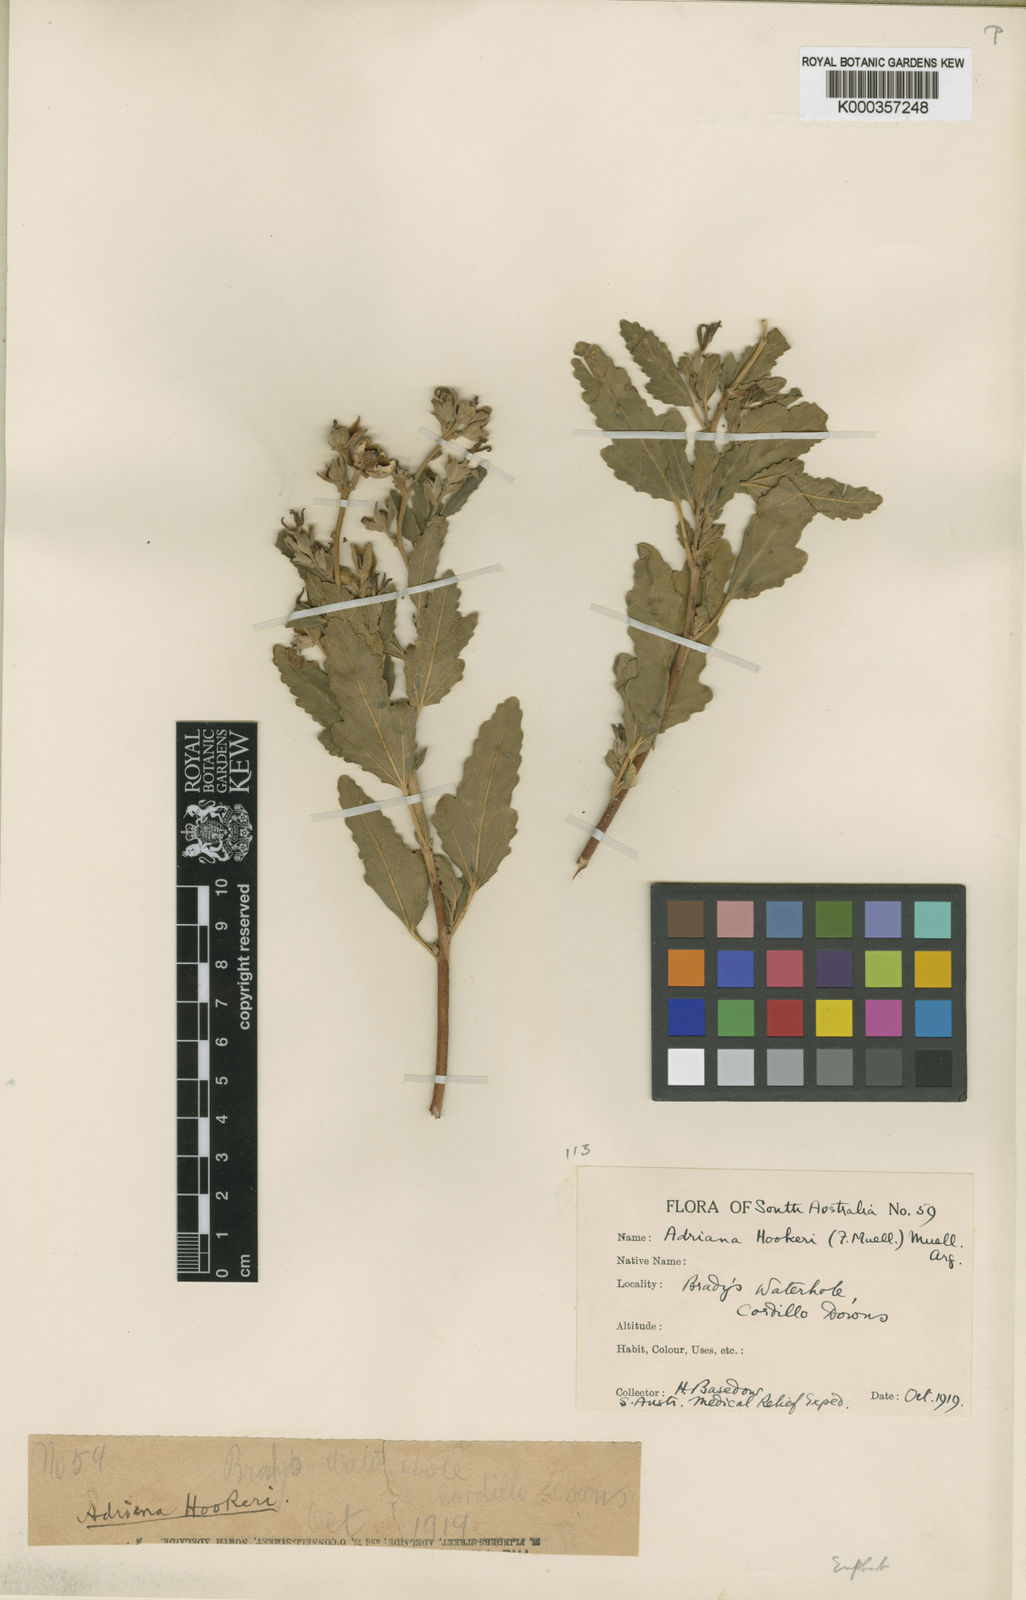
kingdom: Plantae
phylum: Tracheophyta
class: Magnoliopsida
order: Malpighiales
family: Euphorbiaceae
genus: Adriana
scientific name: Adriana tomentosa
